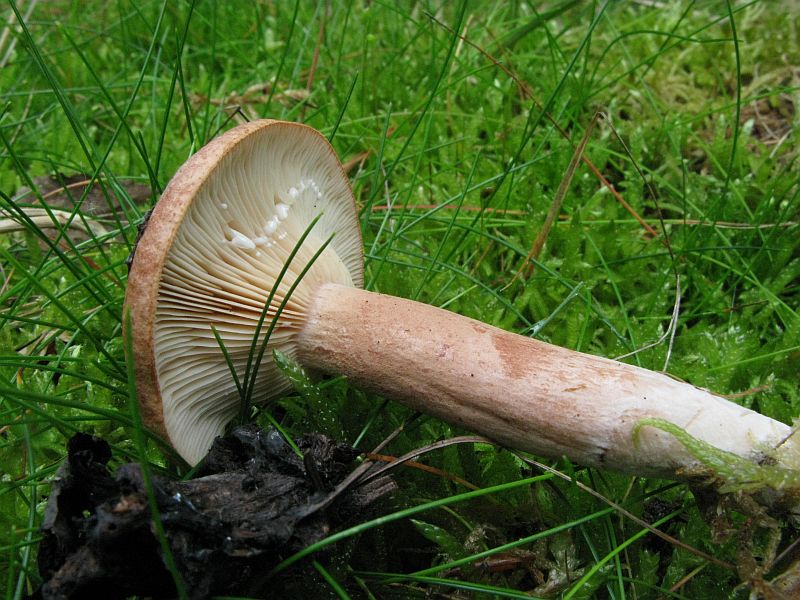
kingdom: Fungi
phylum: Basidiomycota
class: Agaricomycetes
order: Russulales
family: Russulaceae
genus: Lactarius
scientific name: Lactarius rufus
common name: rødbrun mælkehat
